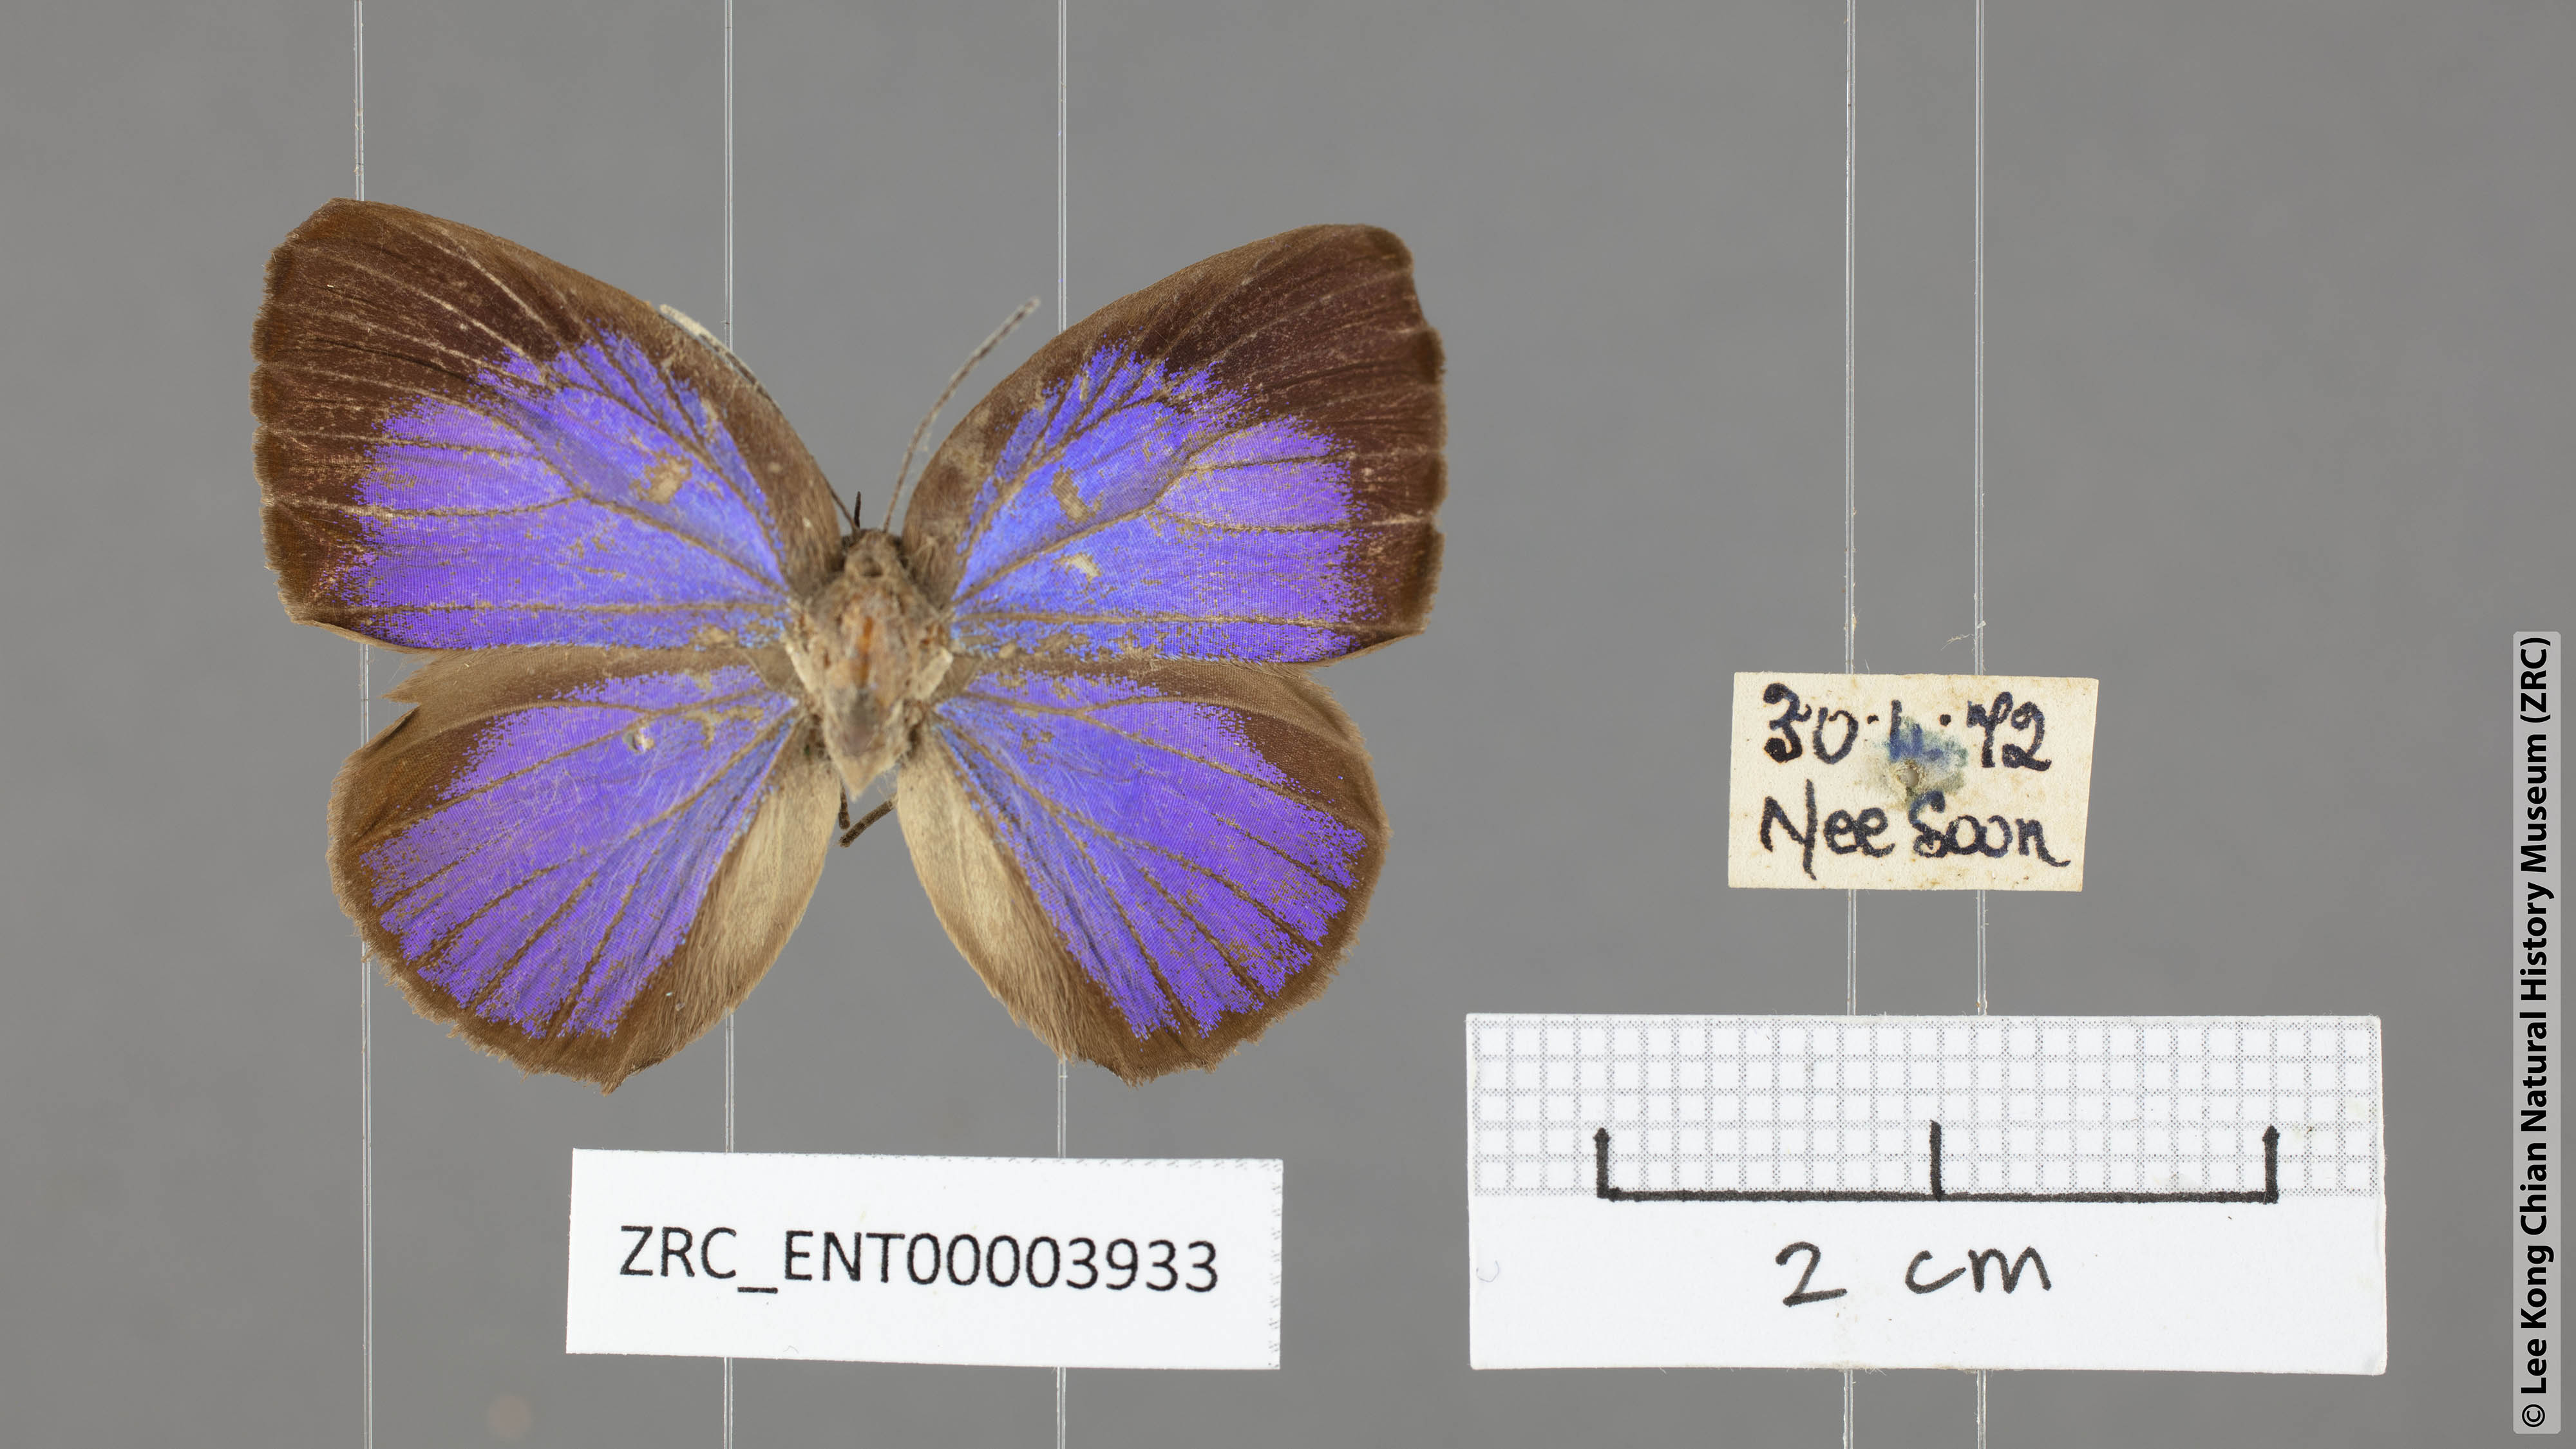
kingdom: Animalia
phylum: Arthropoda
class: Insecta
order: Lepidoptera
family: Lycaenidae
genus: Arhopala
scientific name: Arhopala epimuta
